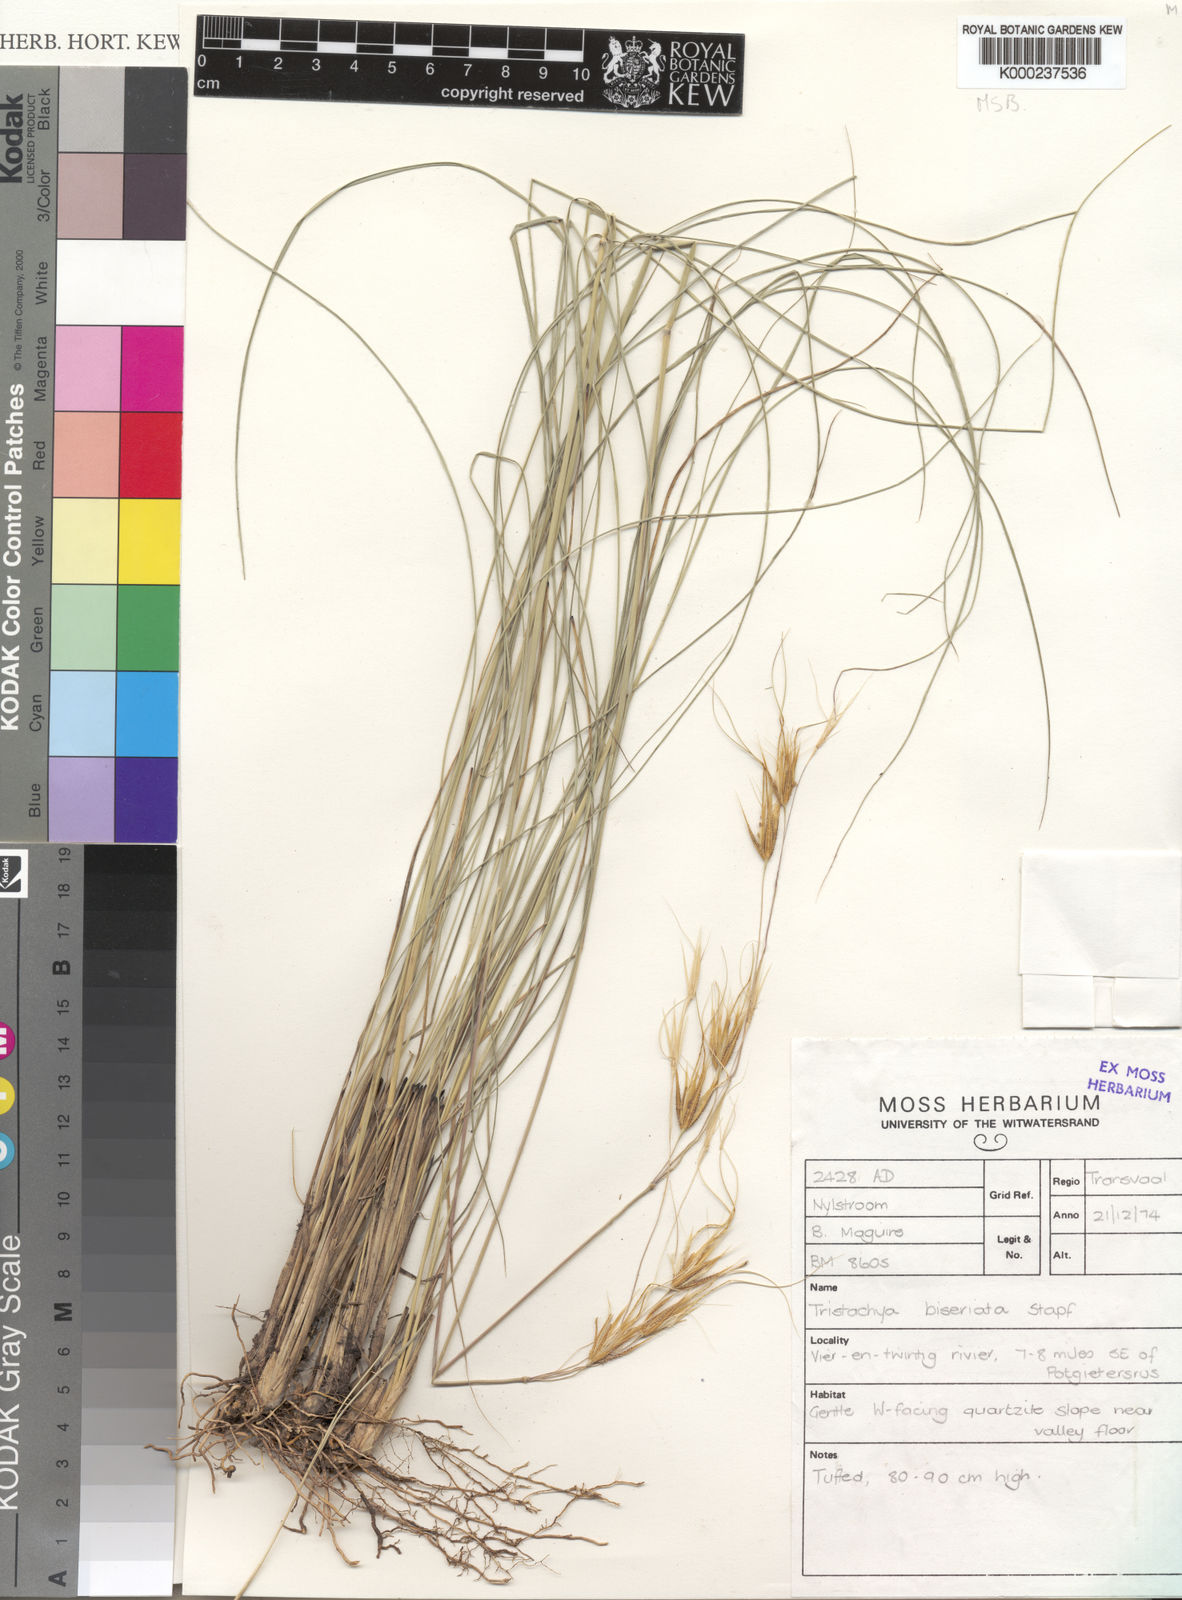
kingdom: Plantae
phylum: Tracheophyta
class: Liliopsida
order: Poales
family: Poaceae
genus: Tristachya
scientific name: Tristachya biseriata
